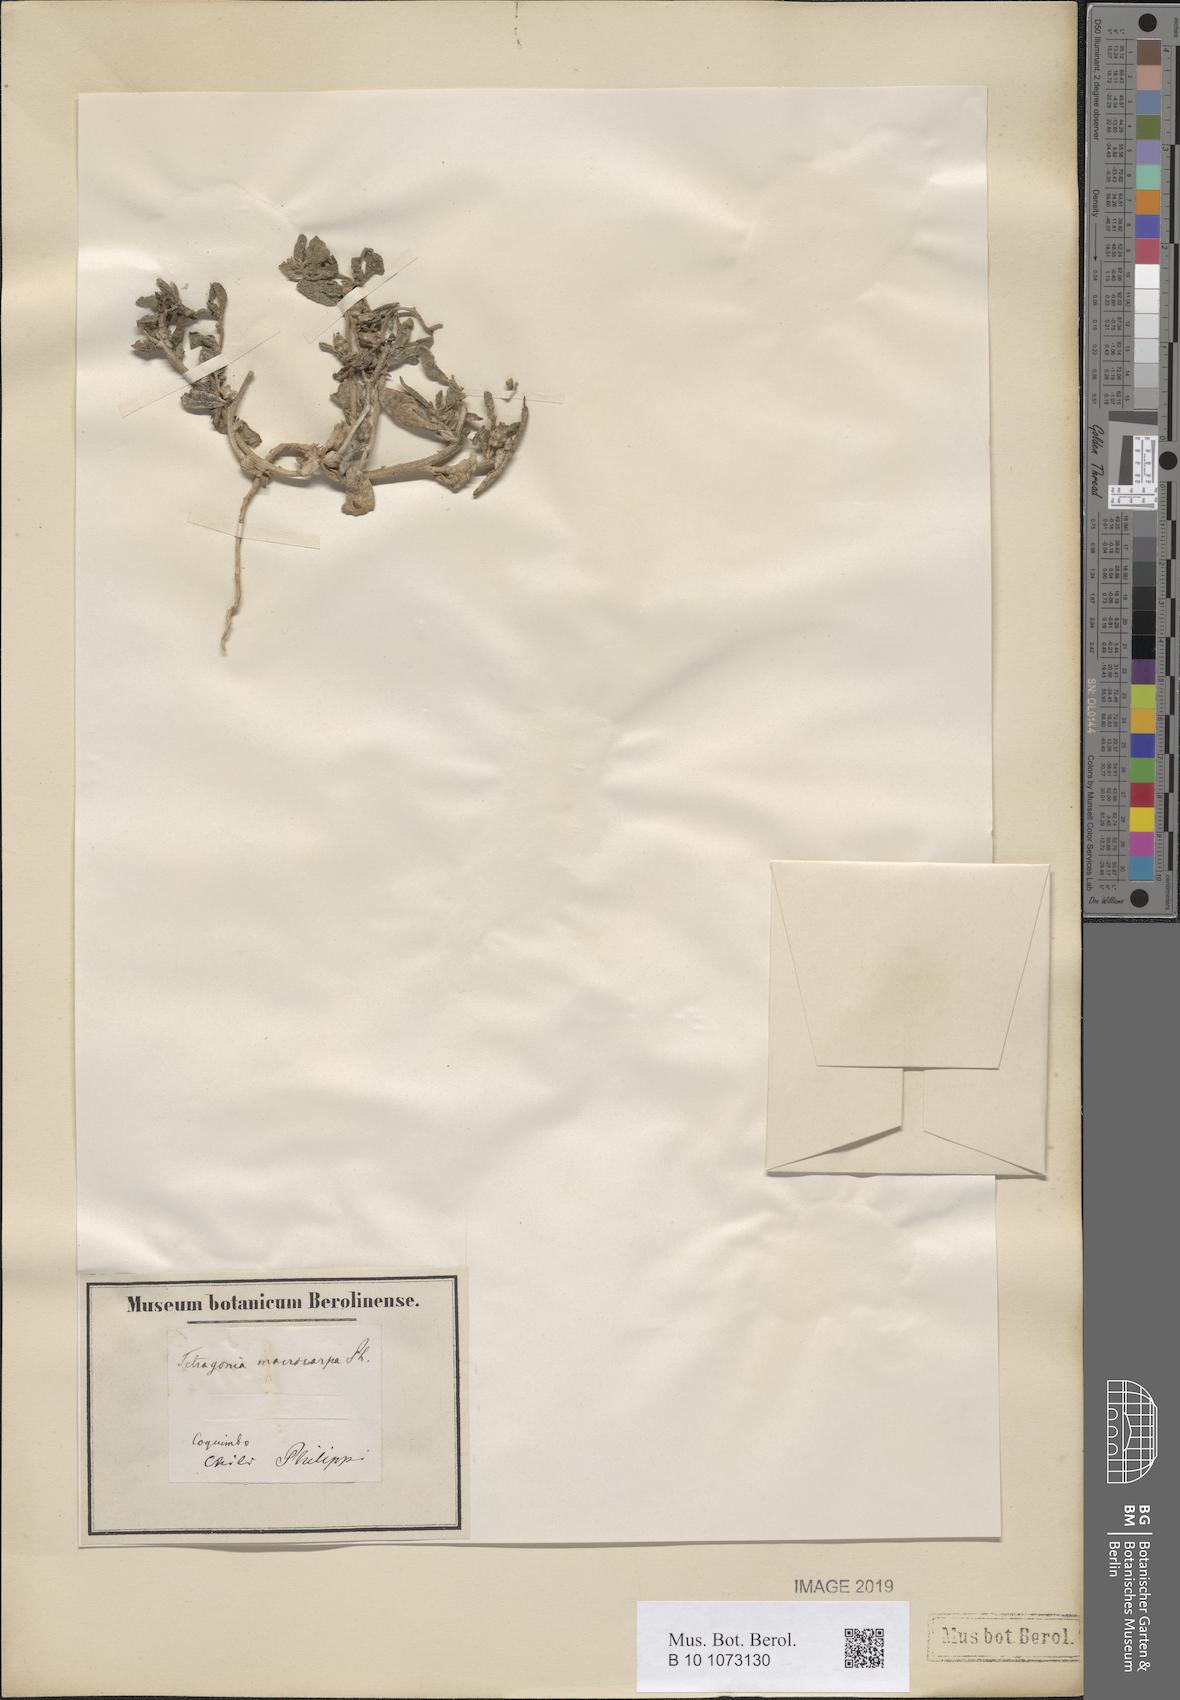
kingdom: Plantae
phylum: Tracheophyta
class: Magnoliopsida
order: Caryophyllales
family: Aizoaceae
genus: Tetragonia
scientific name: Tetragonia macrocarpa
